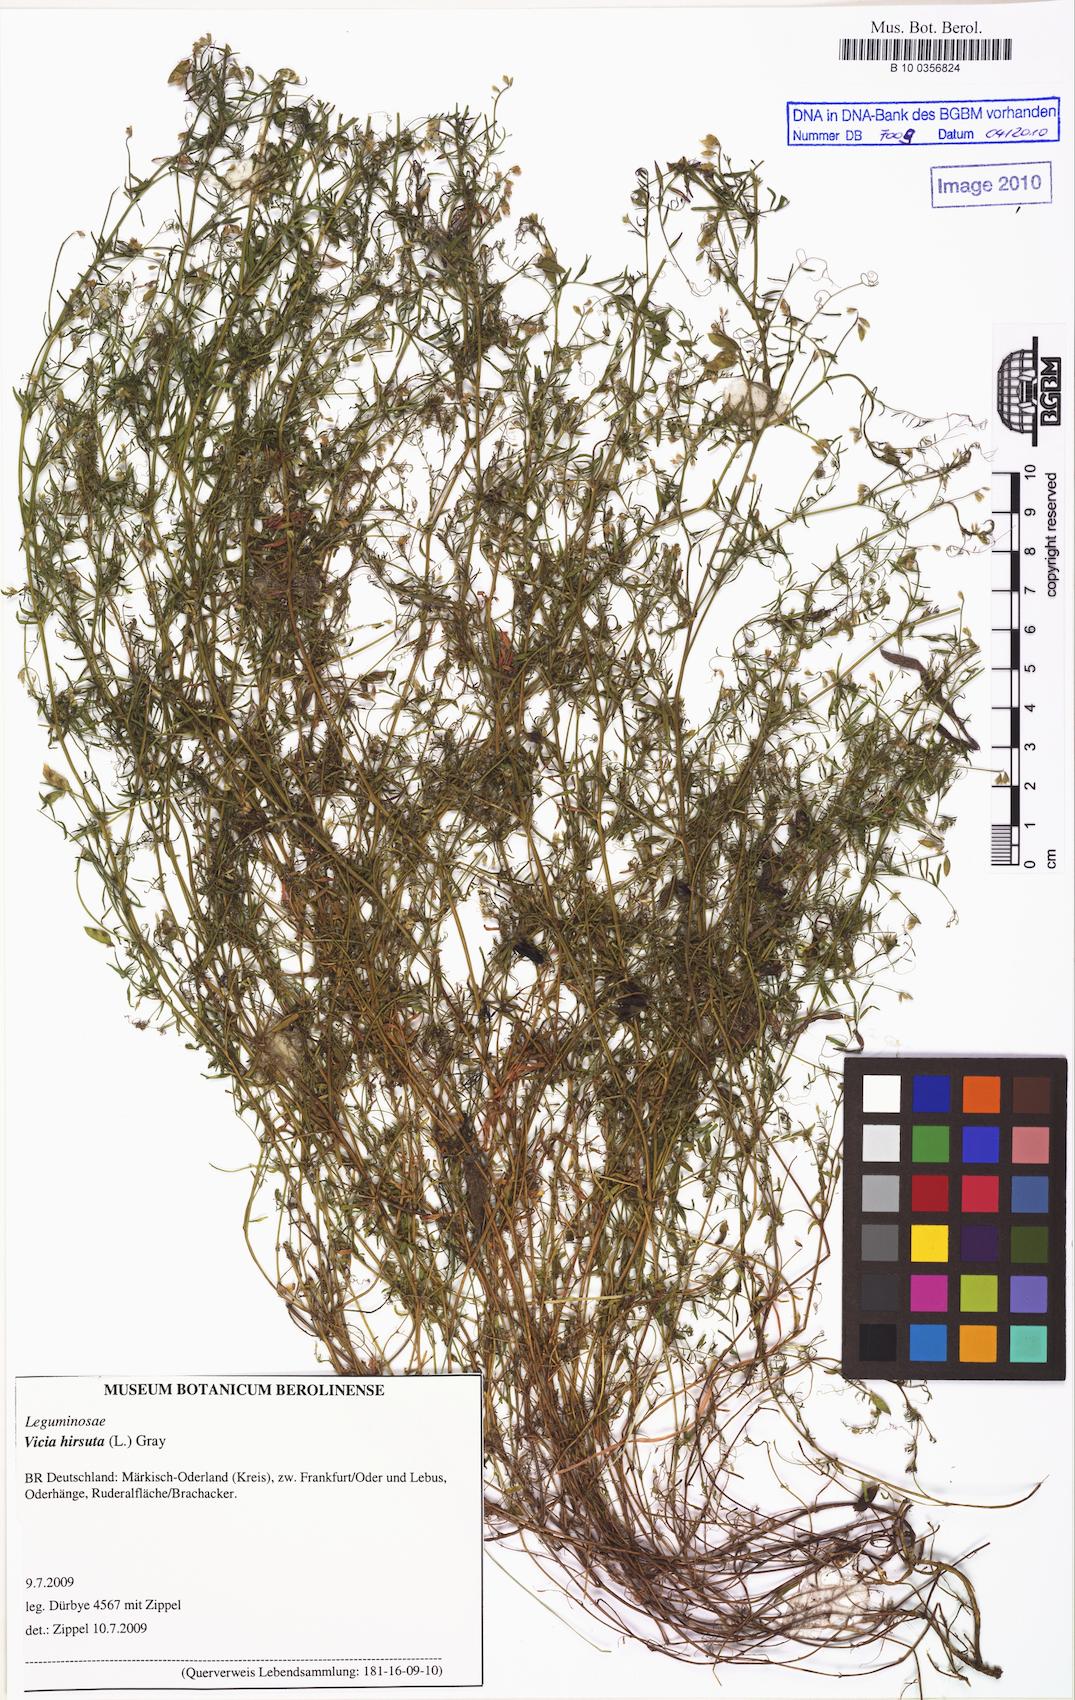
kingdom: Plantae
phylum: Tracheophyta
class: Magnoliopsida
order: Fabales
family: Fabaceae
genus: Vicia
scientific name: Vicia
